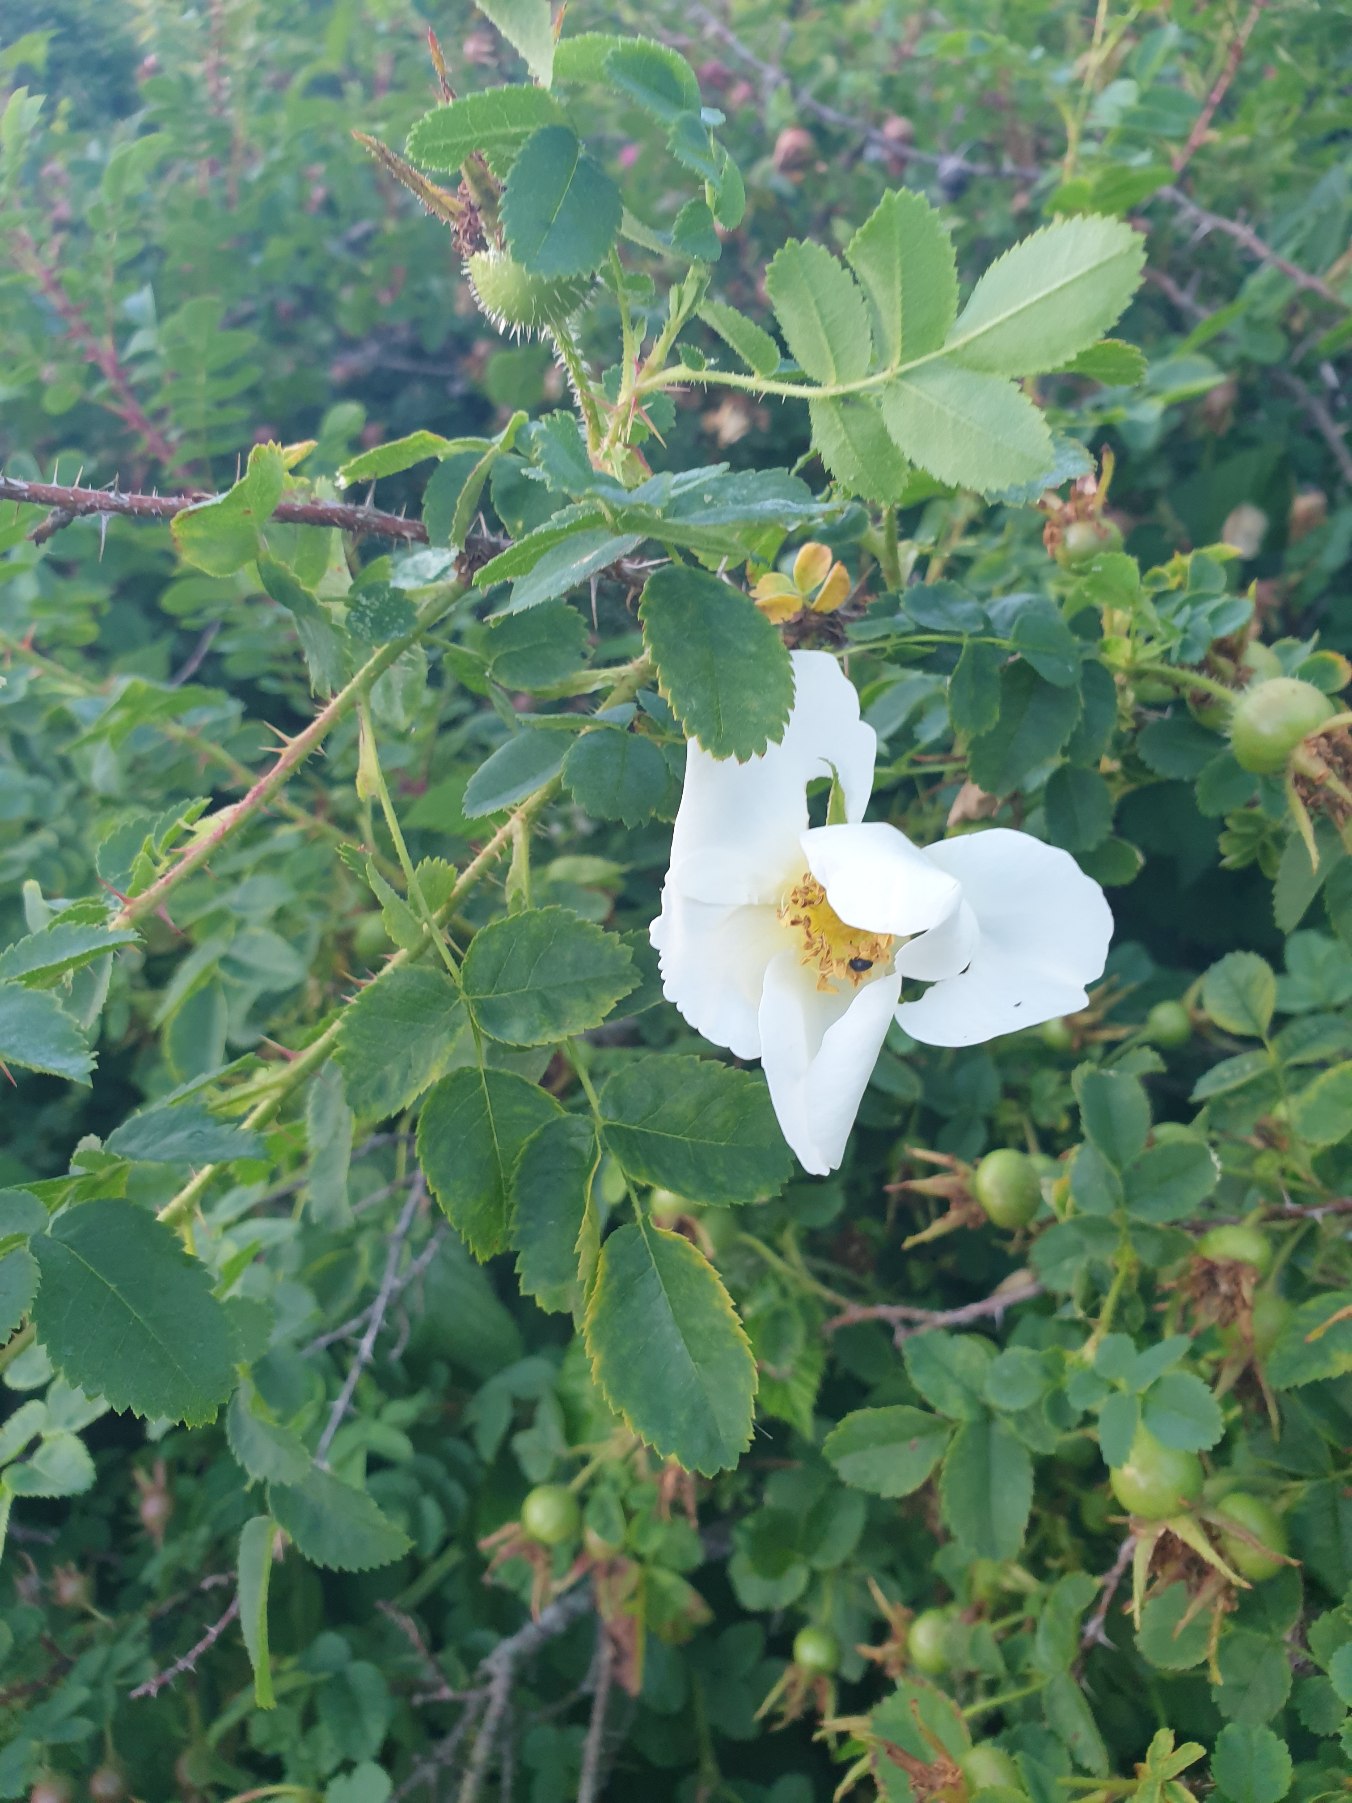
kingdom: Plantae
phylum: Tracheophyta
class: Magnoliopsida
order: Rosales
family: Rosaceae
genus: Rosa
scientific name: Rosa spinosissima
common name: Klit-rose
